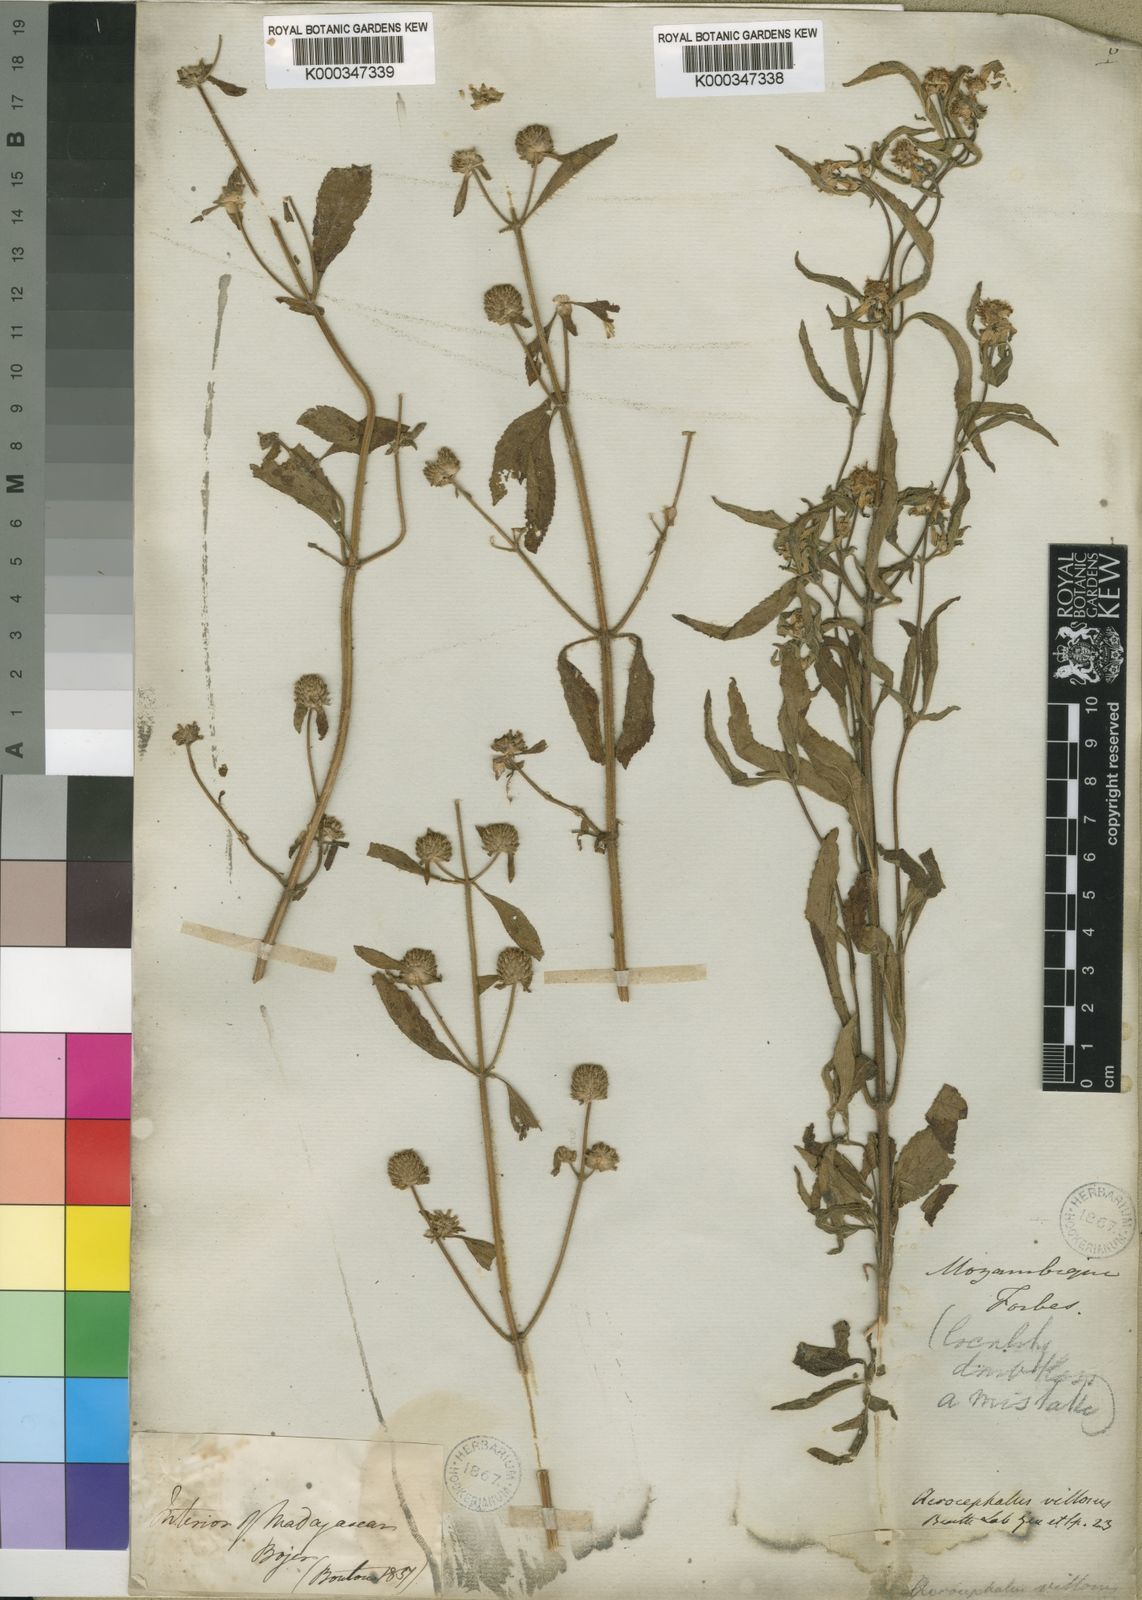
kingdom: Plantae
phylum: Tracheophyta
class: Magnoliopsida
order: Lamiales
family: Lamiaceae
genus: Haumaniastrum
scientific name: Haumaniastrum villosum
